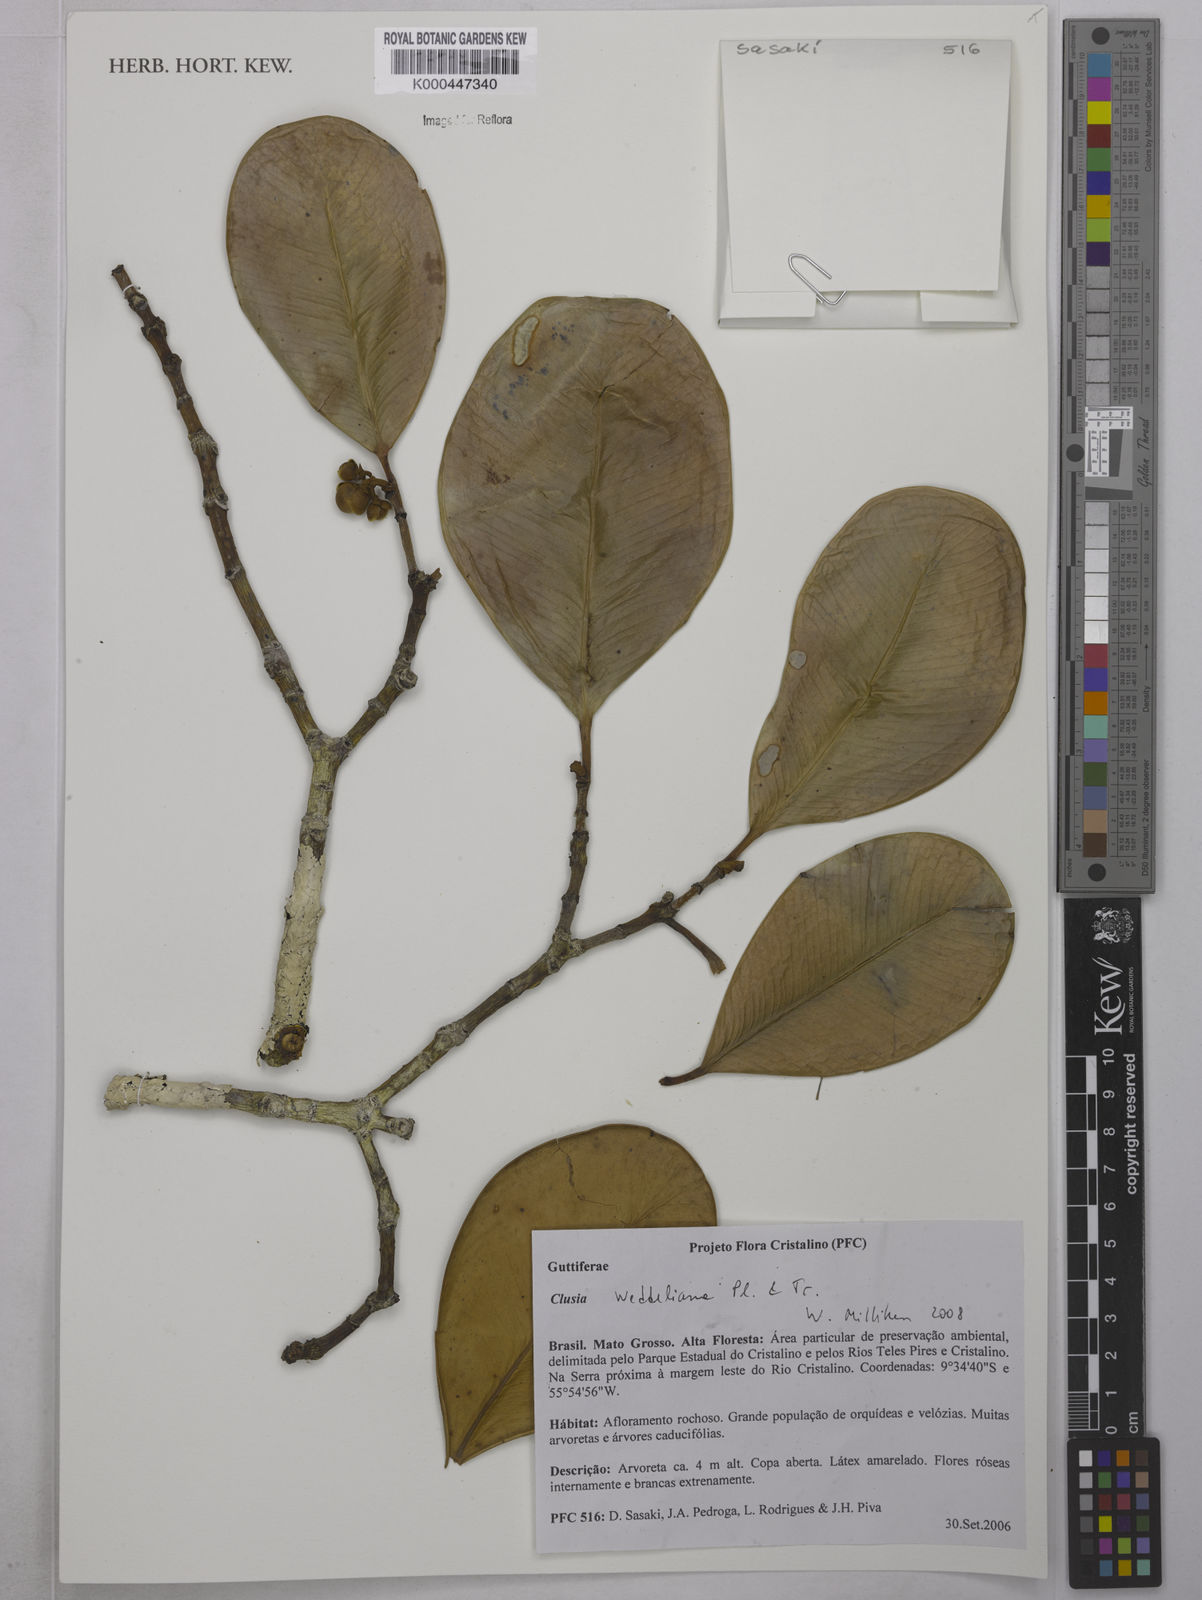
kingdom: Plantae
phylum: Tracheophyta
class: Magnoliopsida
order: Malpighiales
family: Clusiaceae
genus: Clusia
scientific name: Clusia weddelliana
